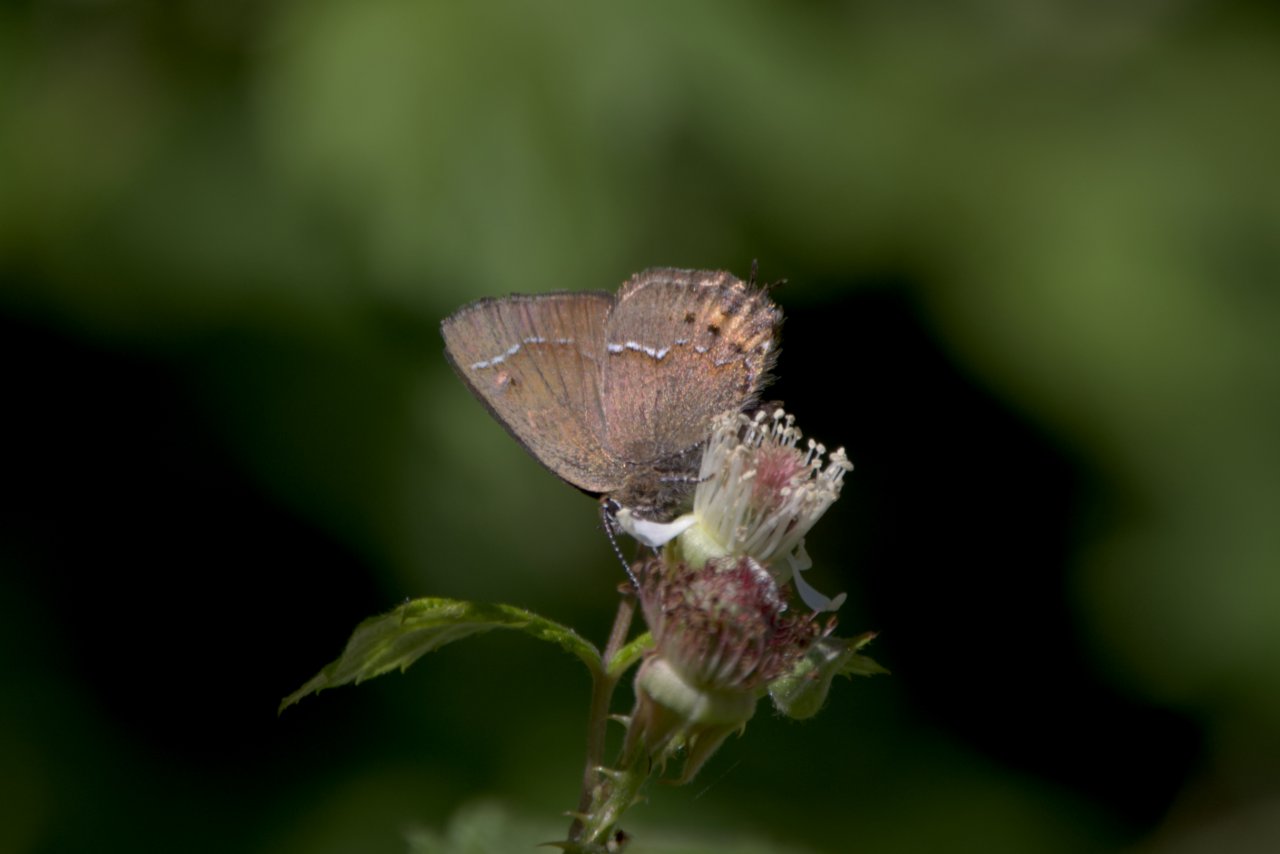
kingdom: Animalia
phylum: Arthropoda
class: Insecta
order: Lepidoptera
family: Lycaenidae
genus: Mitoura
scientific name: Mitoura gryneus
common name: Juniper Hairstreak
